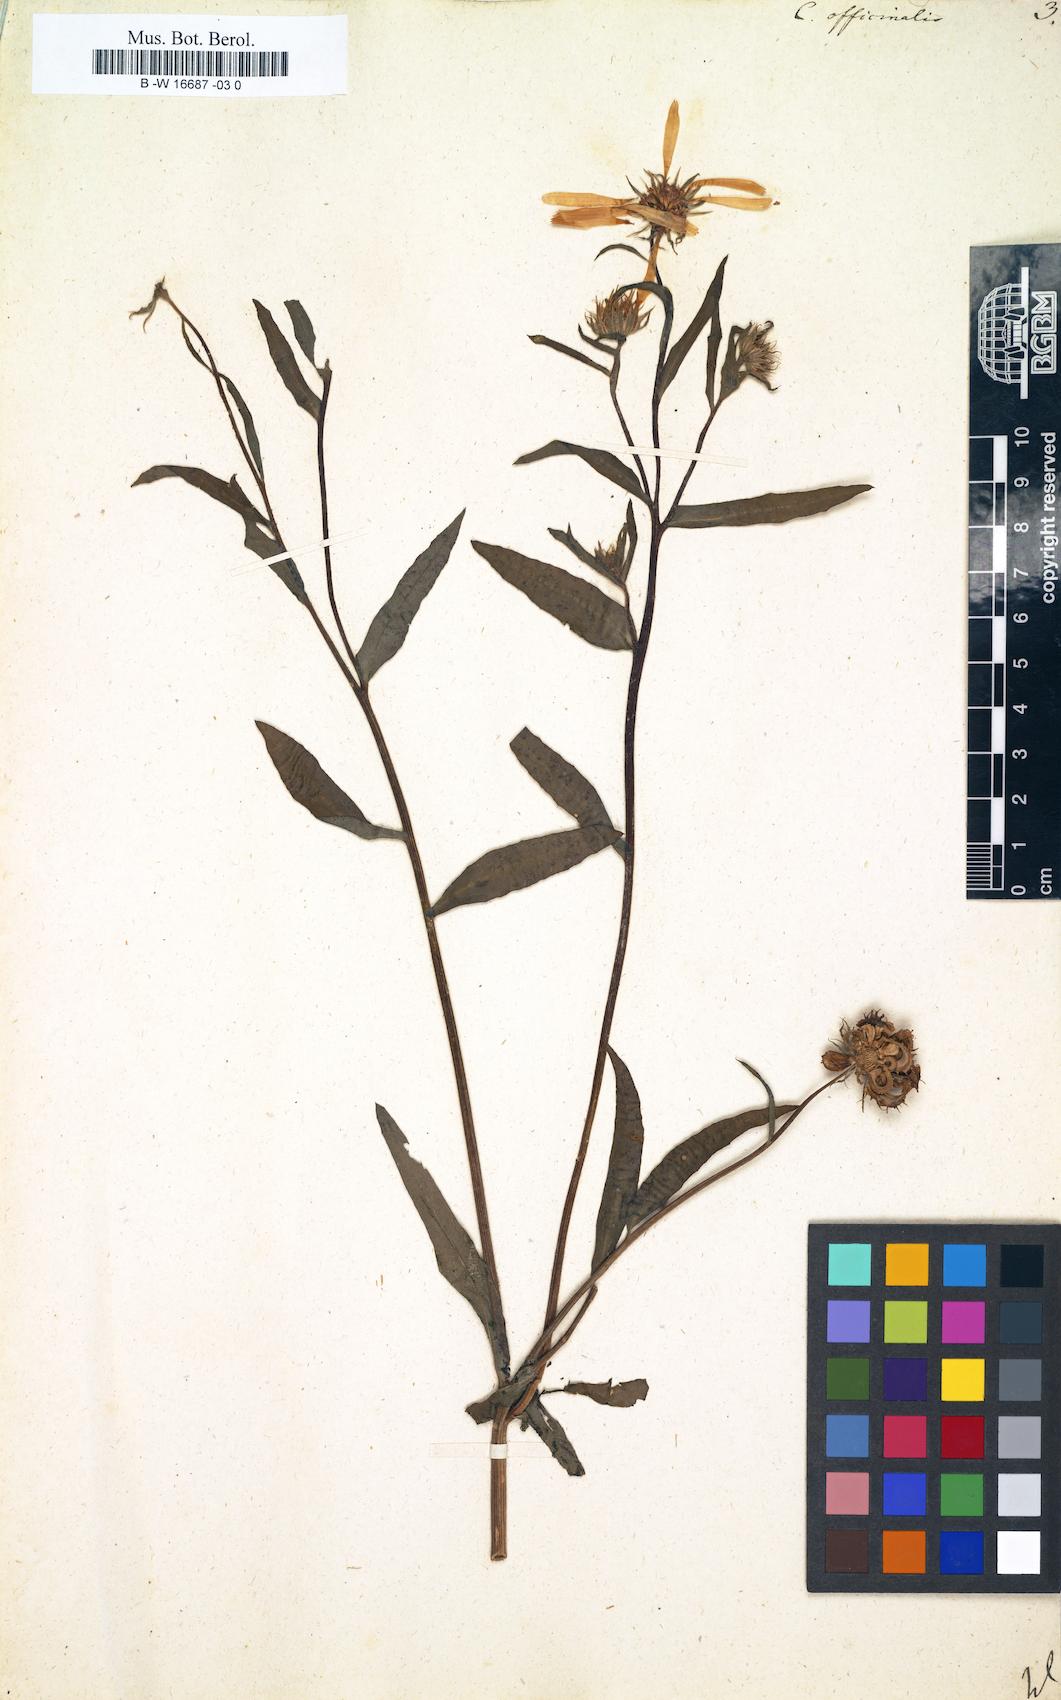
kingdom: Plantae
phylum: Tracheophyta
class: Magnoliopsida
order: Asterales
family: Asteraceae
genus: Calendula
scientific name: Calendula officinalis
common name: Pot marigold
